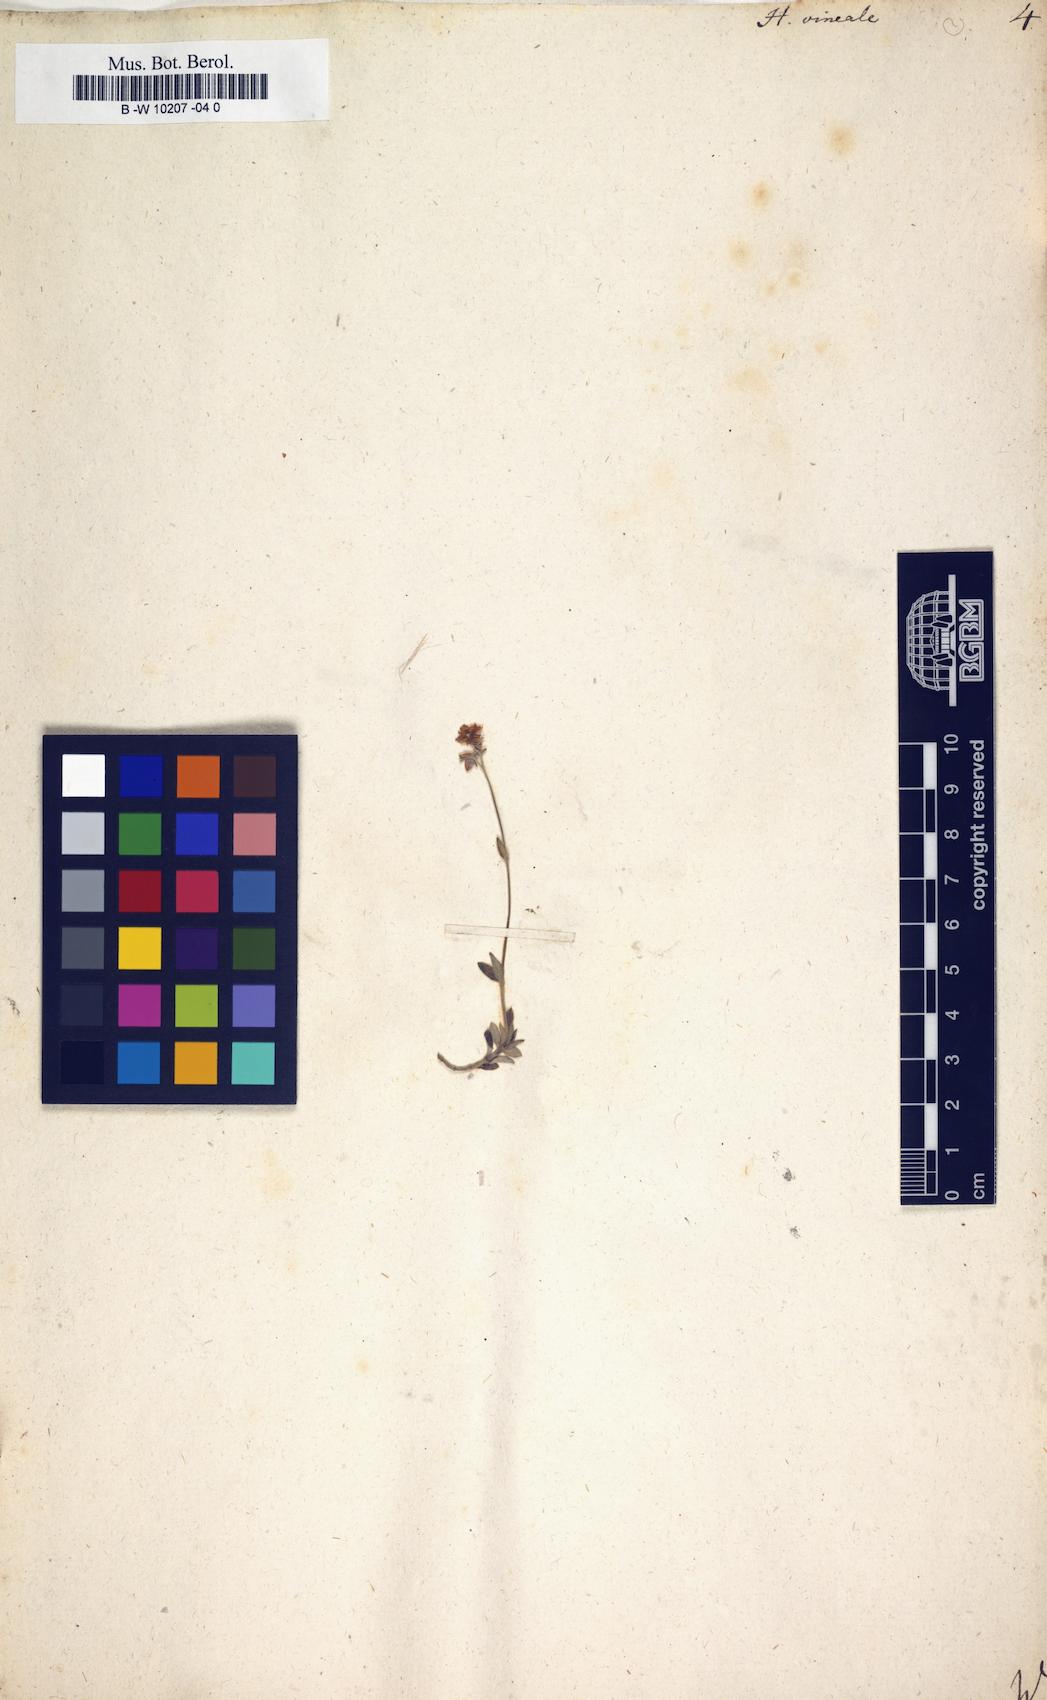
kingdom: Plantae
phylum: Tracheophyta
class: Magnoliopsida
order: Malvales
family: Cistaceae
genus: Helianthemum
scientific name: Helianthemum canum
